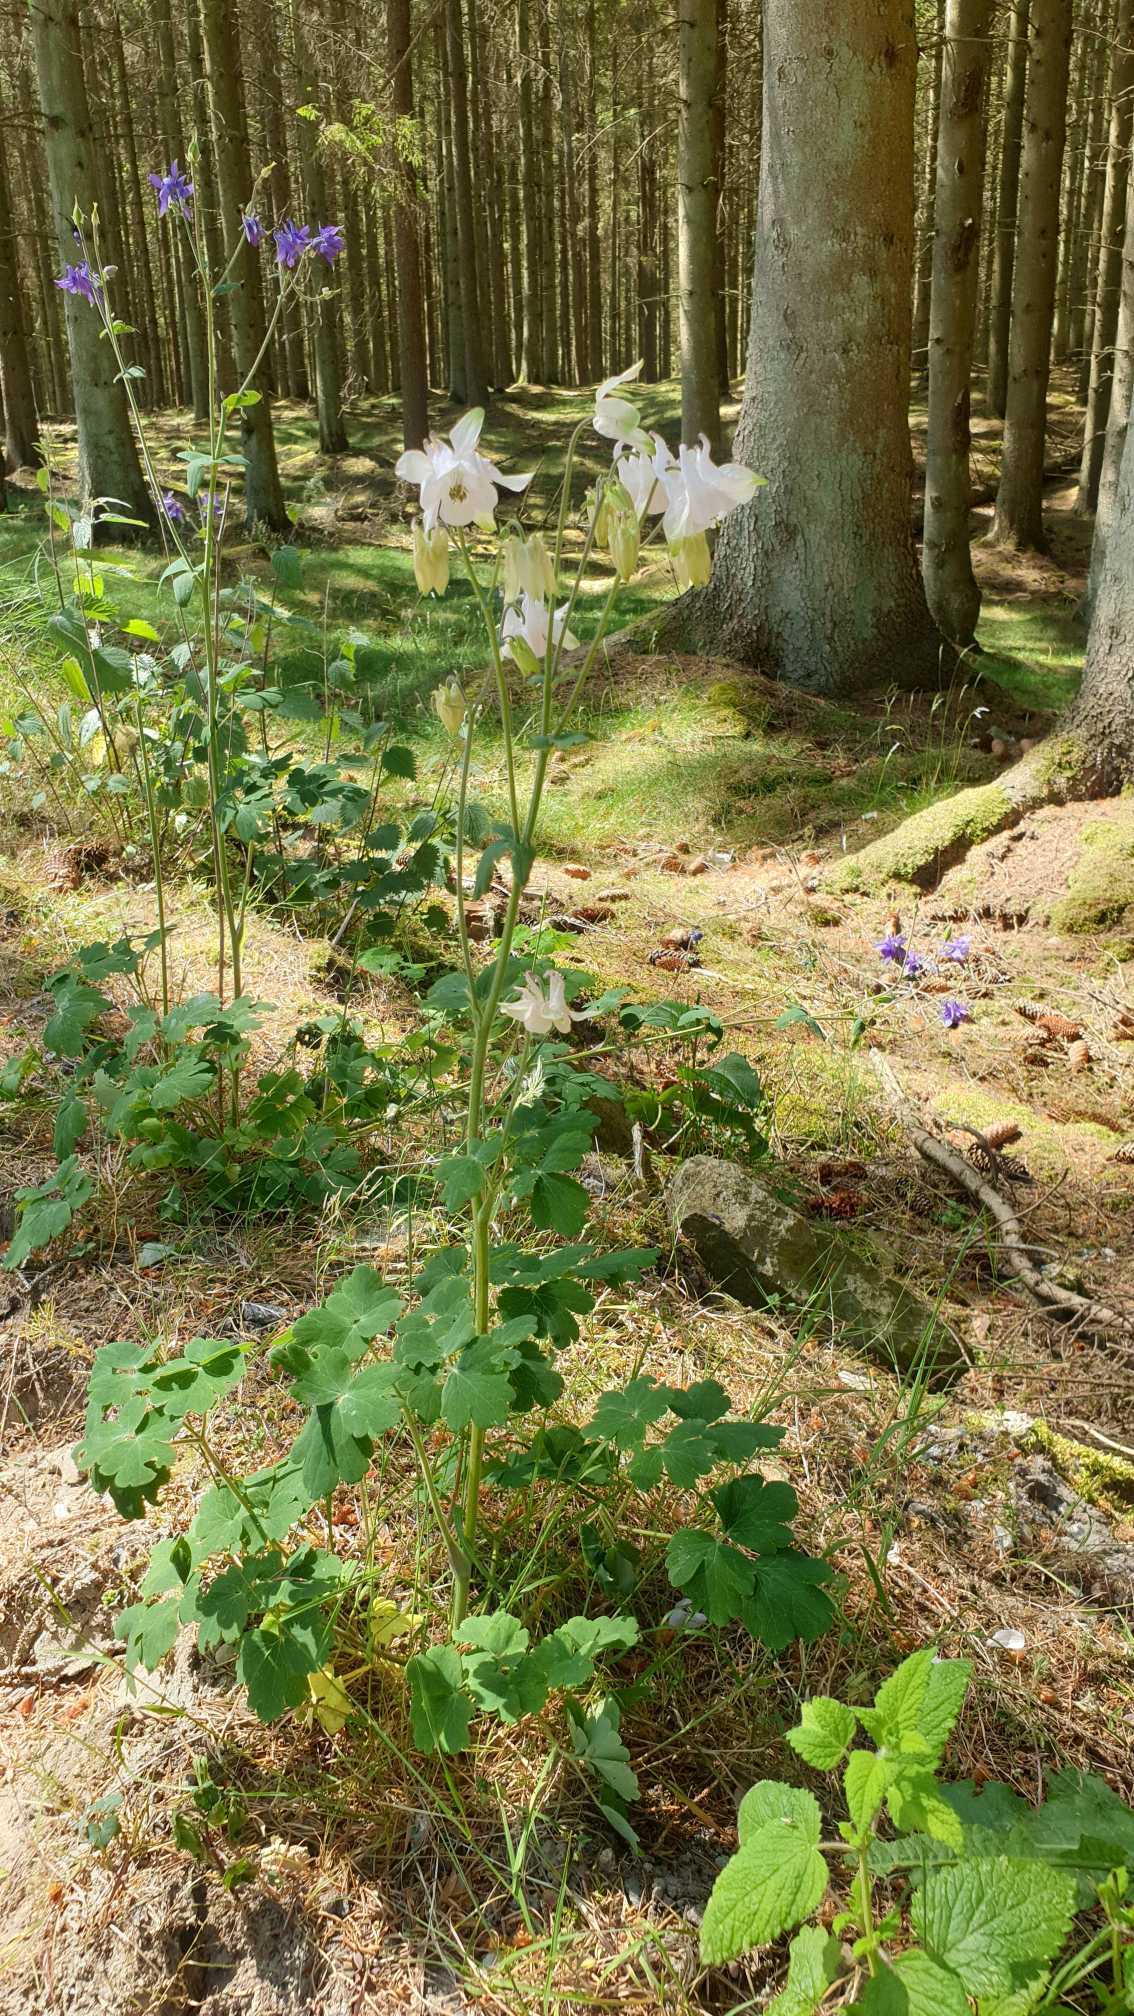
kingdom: Plantae
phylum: Tracheophyta
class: Magnoliopsida
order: Ranunculales
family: Ranunculaceae
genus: Aquilegia
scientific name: Aquilegia vulgaris
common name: Akeleje
